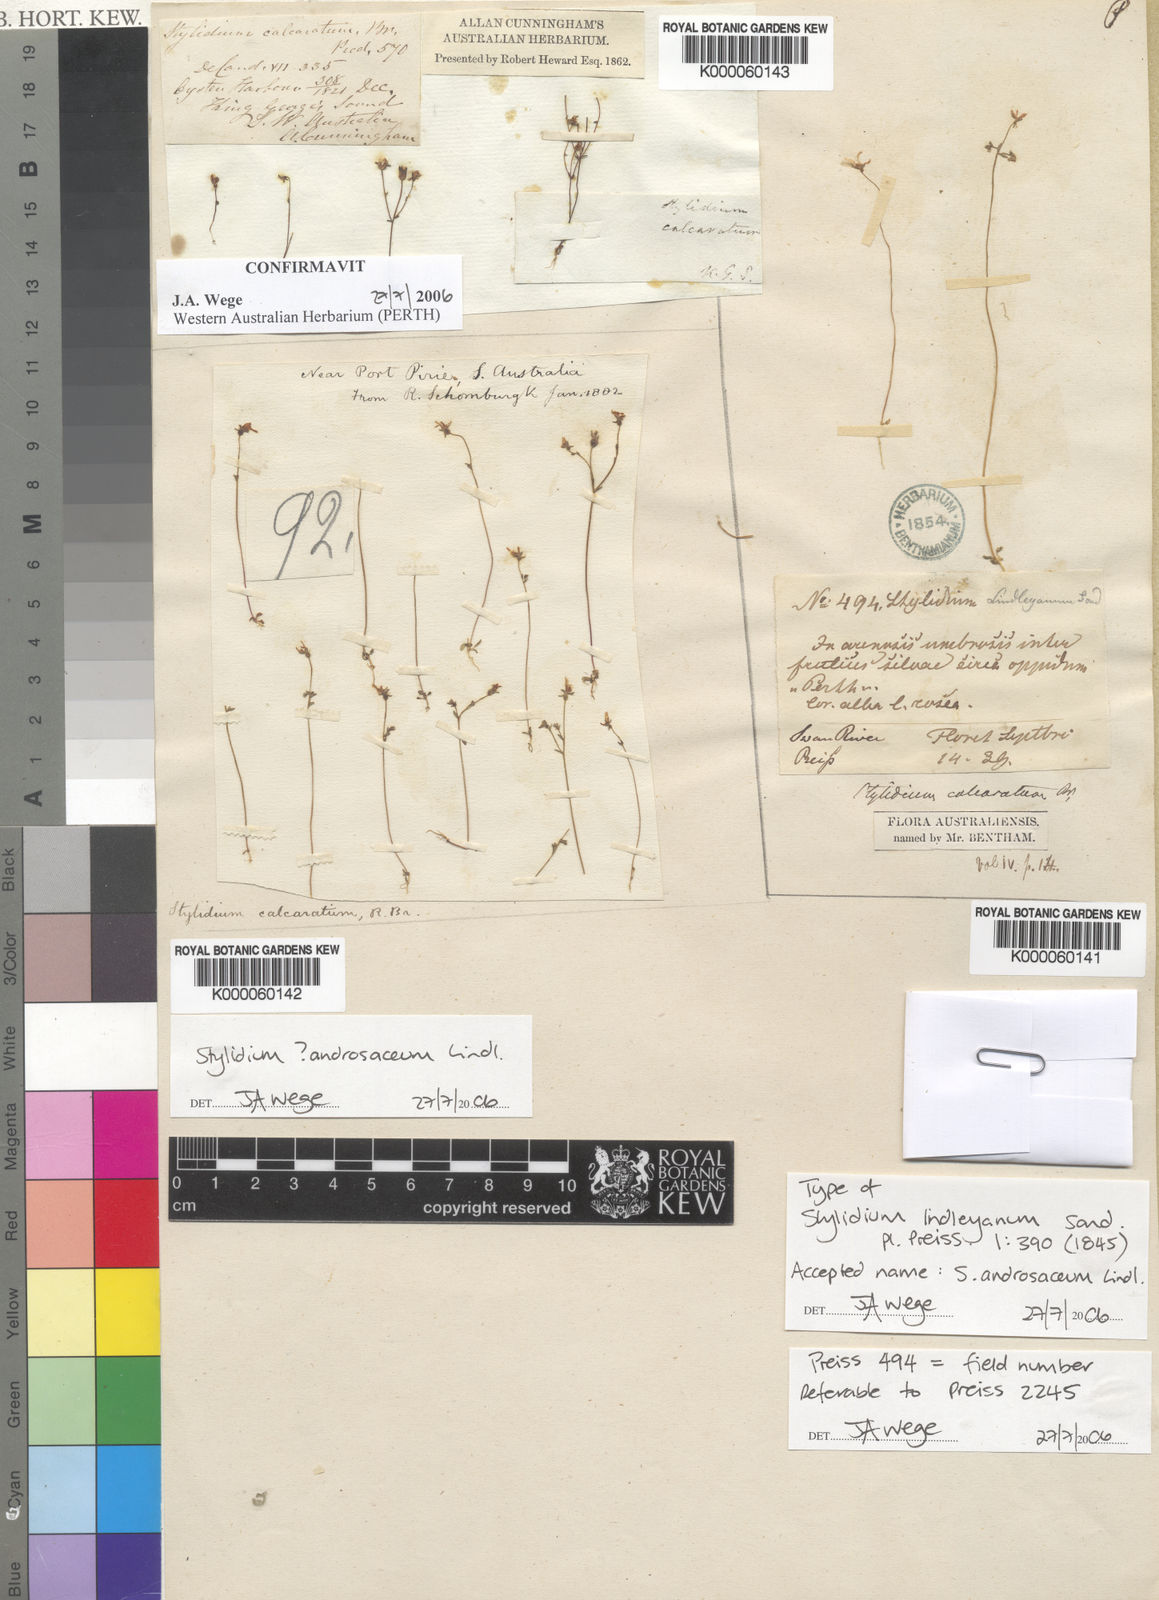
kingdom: Plantae
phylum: Tracheophyta
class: Magnoliopsida
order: Asterales
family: Stylidiaceae
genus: Stylidium
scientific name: Stylidium androsaceum
